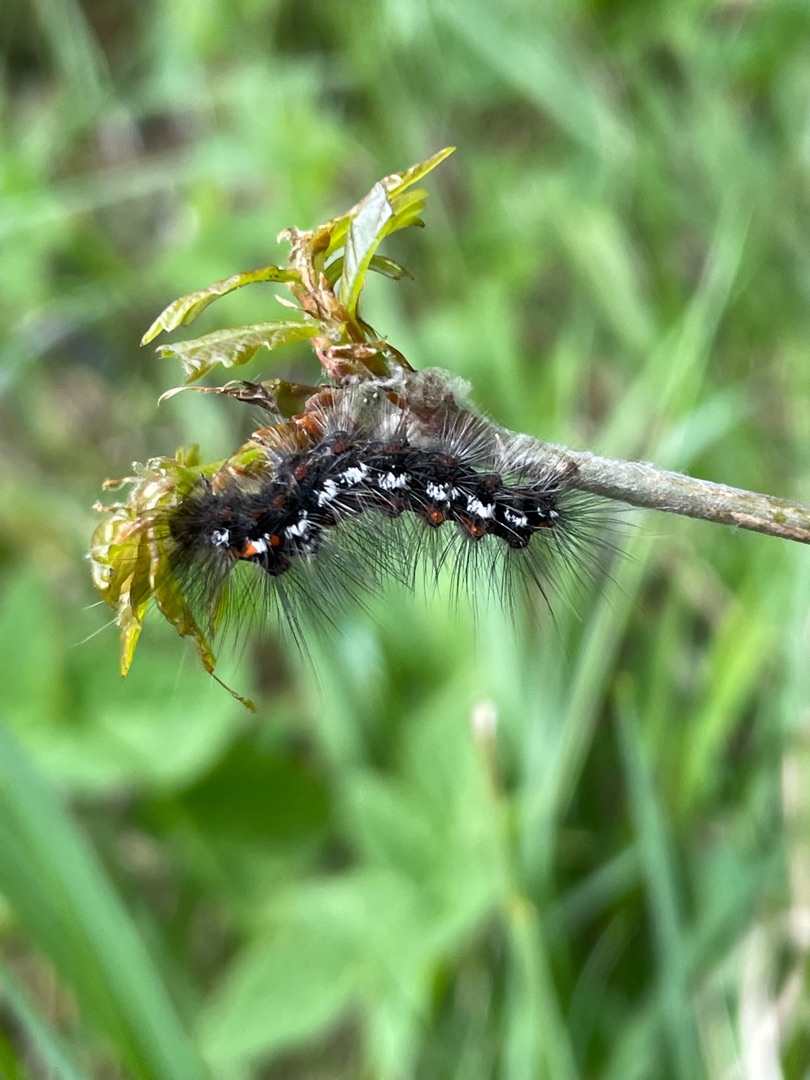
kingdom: Animalia
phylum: Arthropoda
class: Insecta
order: Lepidoptera
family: Erebidae
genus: Sphrageidus
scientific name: Sphrageidus similis
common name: Gulhale
